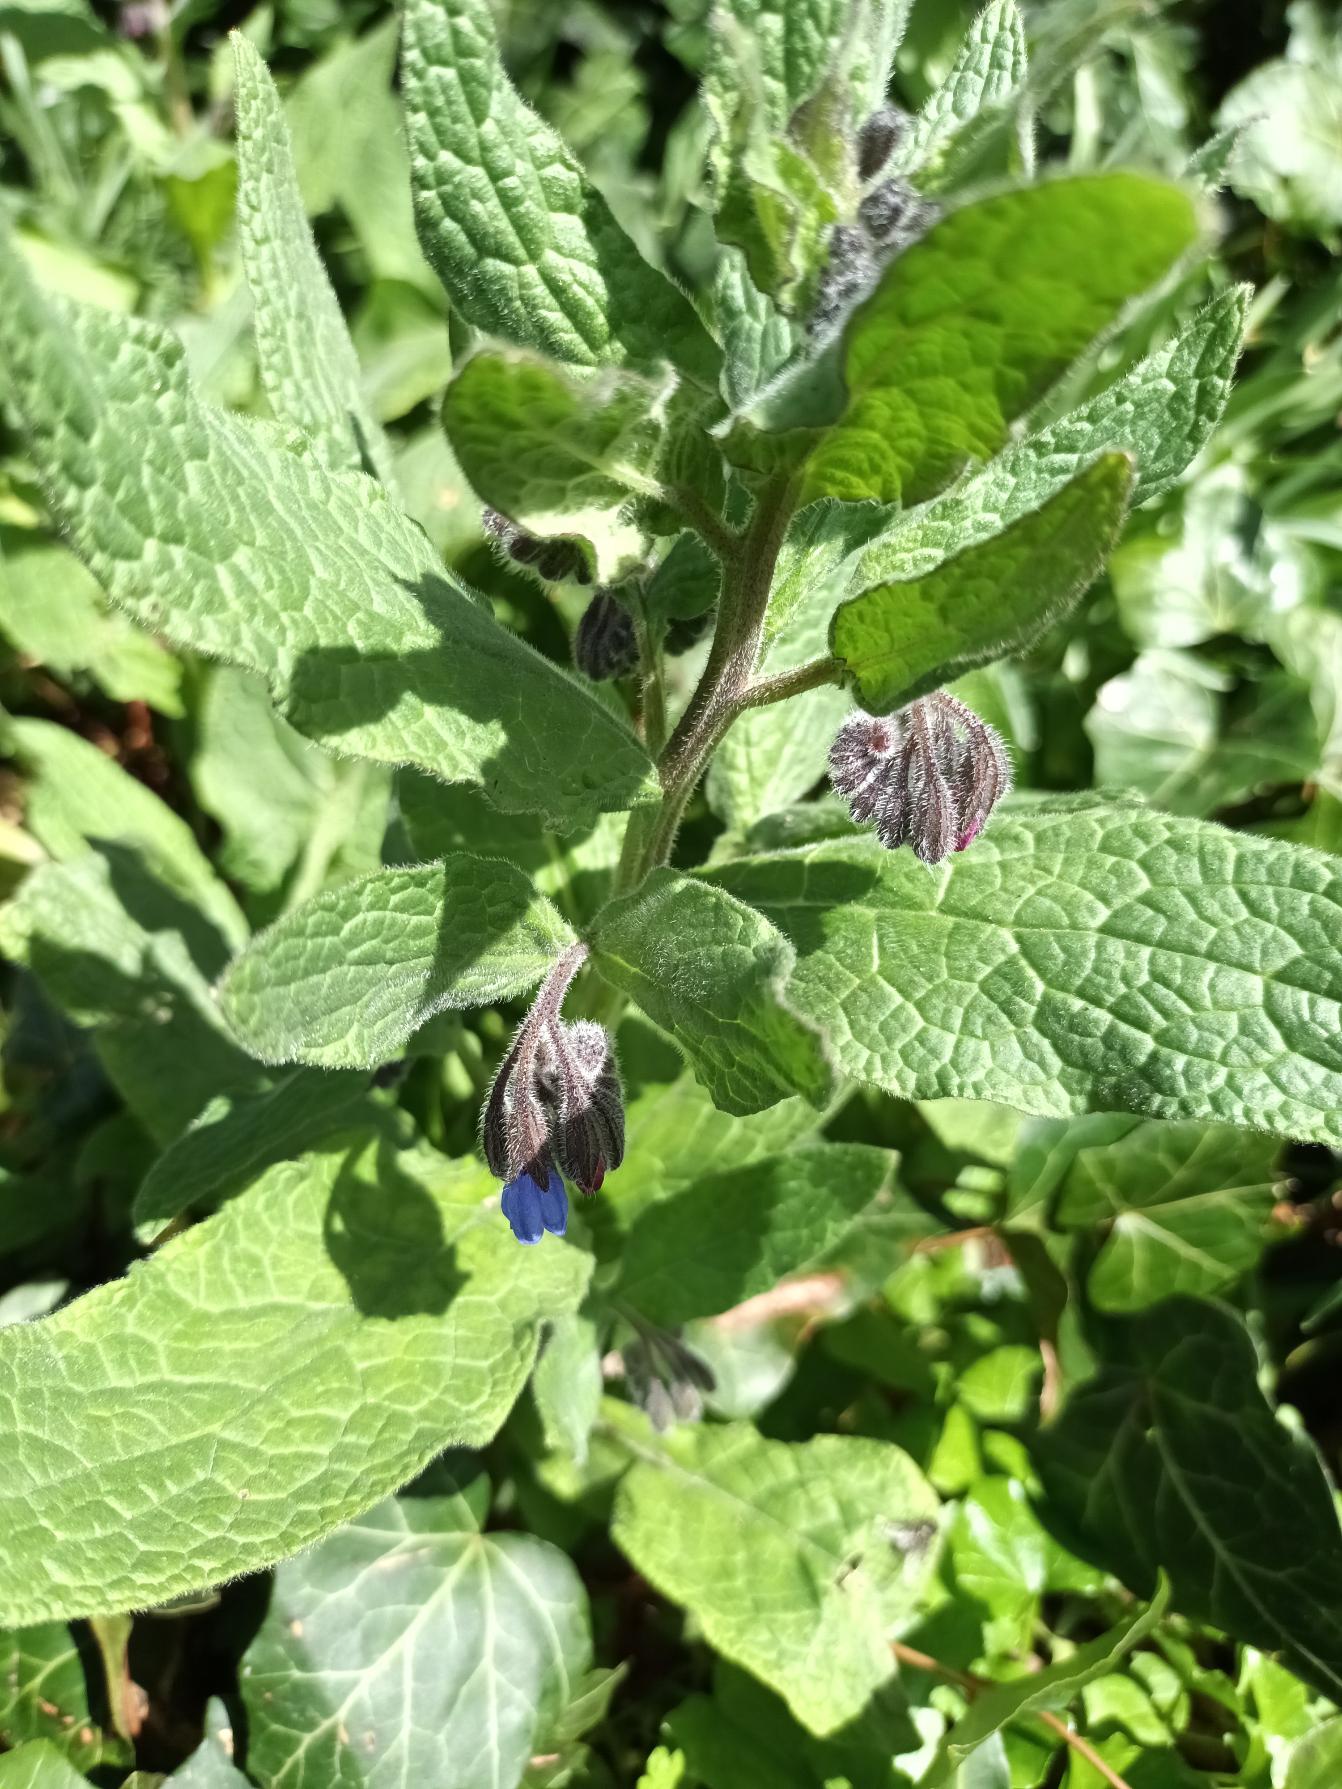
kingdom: Plantae
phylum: Tracheophyta
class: Magnoliopsida
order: Boraginales
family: Boraginaceae
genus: Symphytum
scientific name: Symphytum caucasicum
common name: Kaukasisk kulsukker
